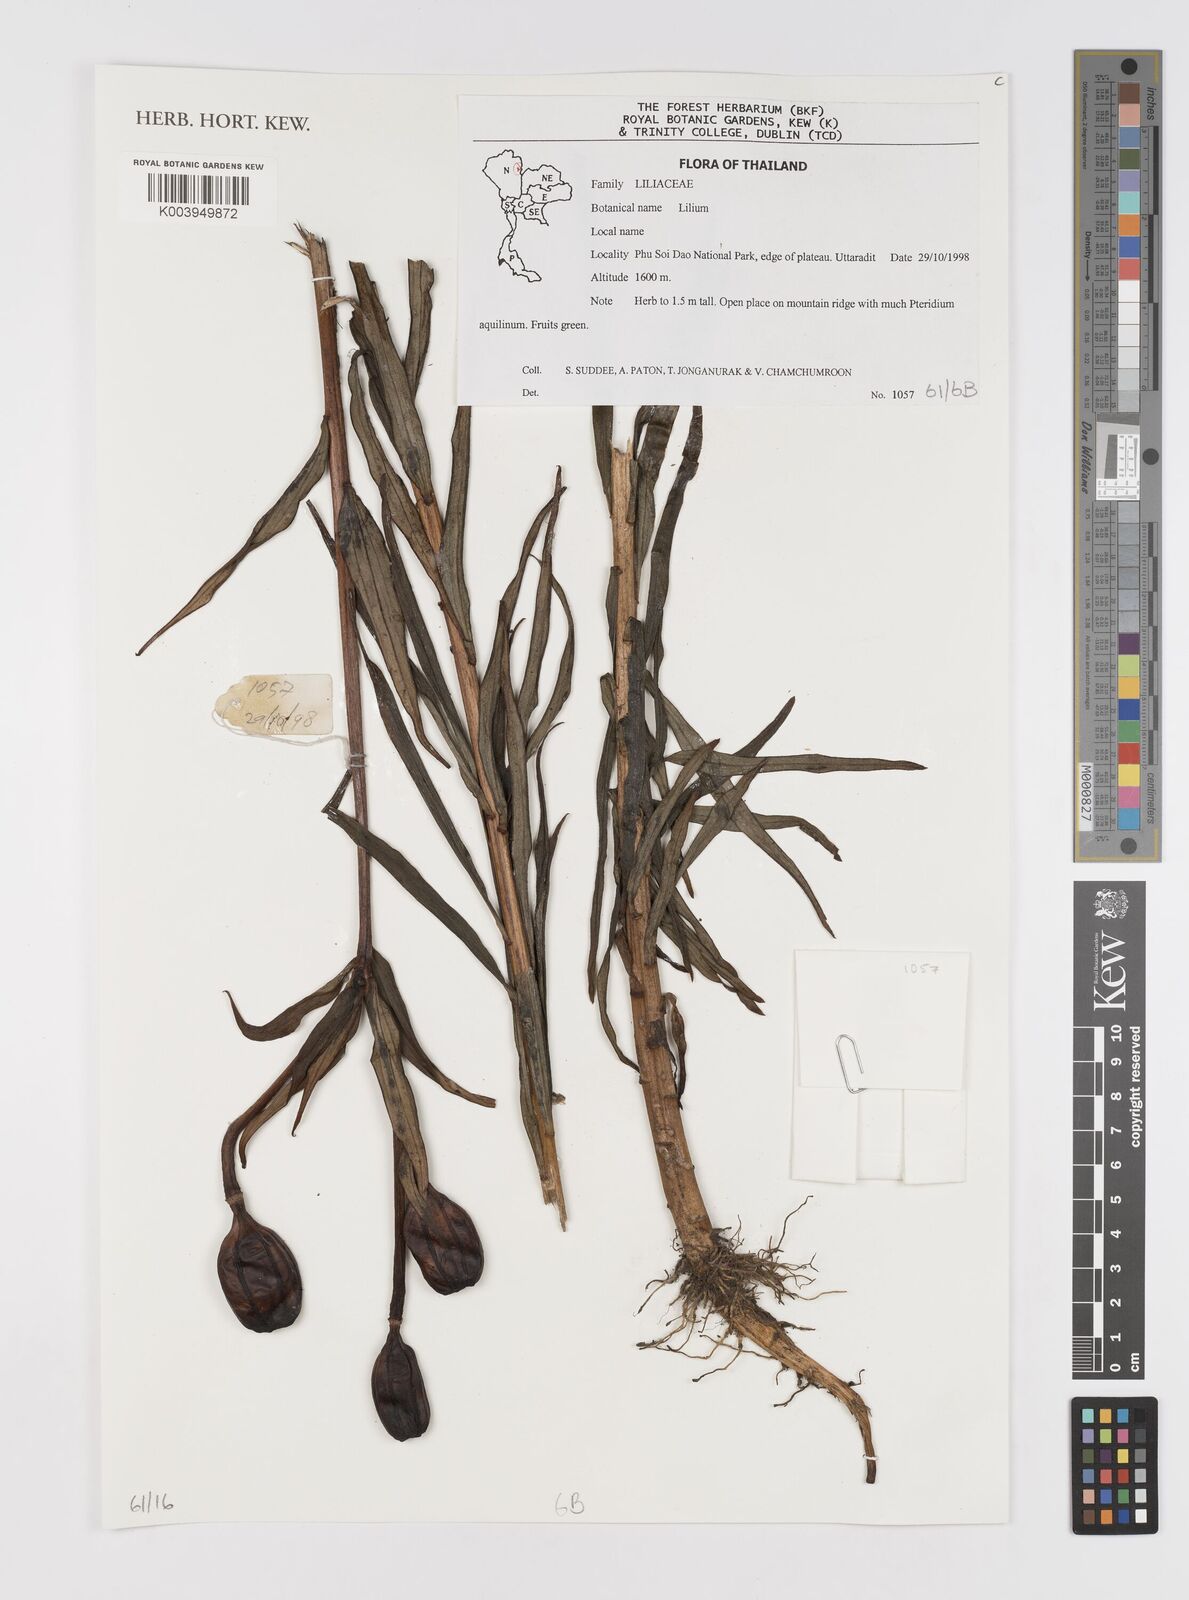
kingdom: Plantae
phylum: Tracheophyta
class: Liliopsida
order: Liliales
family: Liliaceae
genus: Lilium
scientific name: Lilium
